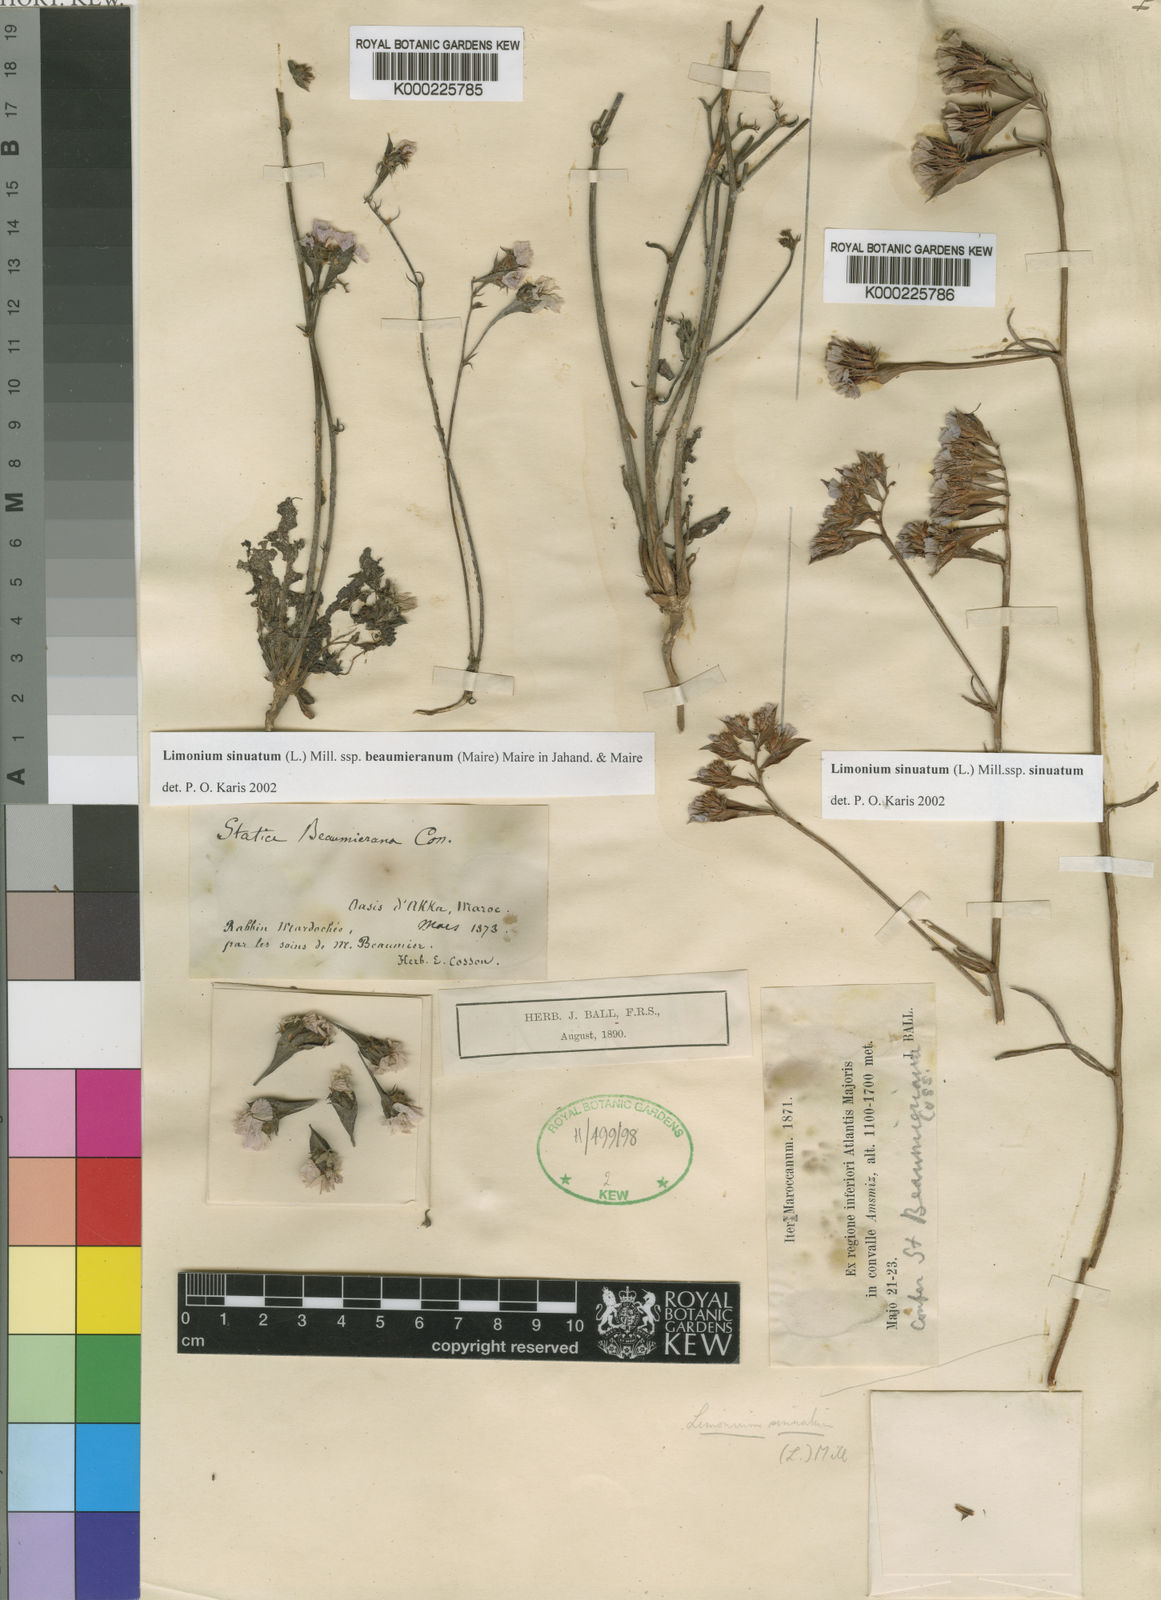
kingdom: Plantae
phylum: Tracheophyta
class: Magnoliopsida
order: Caryophyllales
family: Plumbaginaceae
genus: Limonium
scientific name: Limonium sinuatum
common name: Statice
